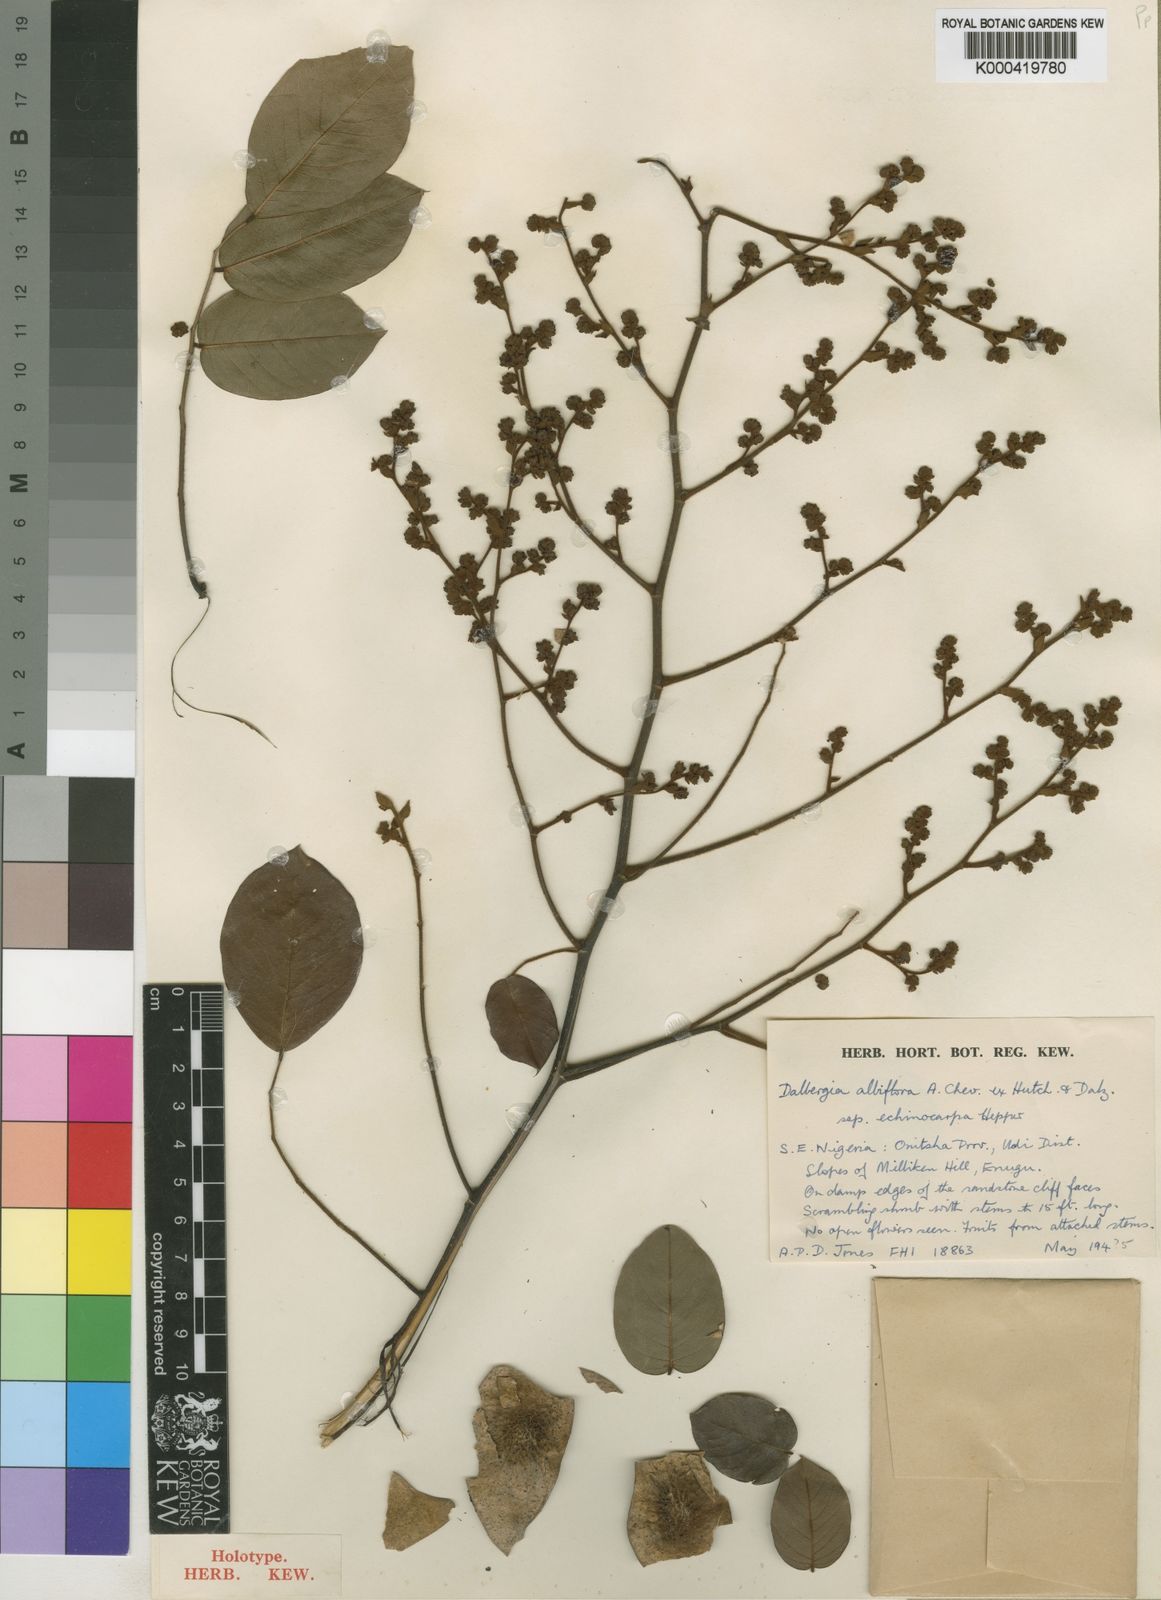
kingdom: Plantae
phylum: Tracheophyta
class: Magnoliopsida
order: Fabales
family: Fabaceae
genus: Dalbergia
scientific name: Dalbergia albiflora
